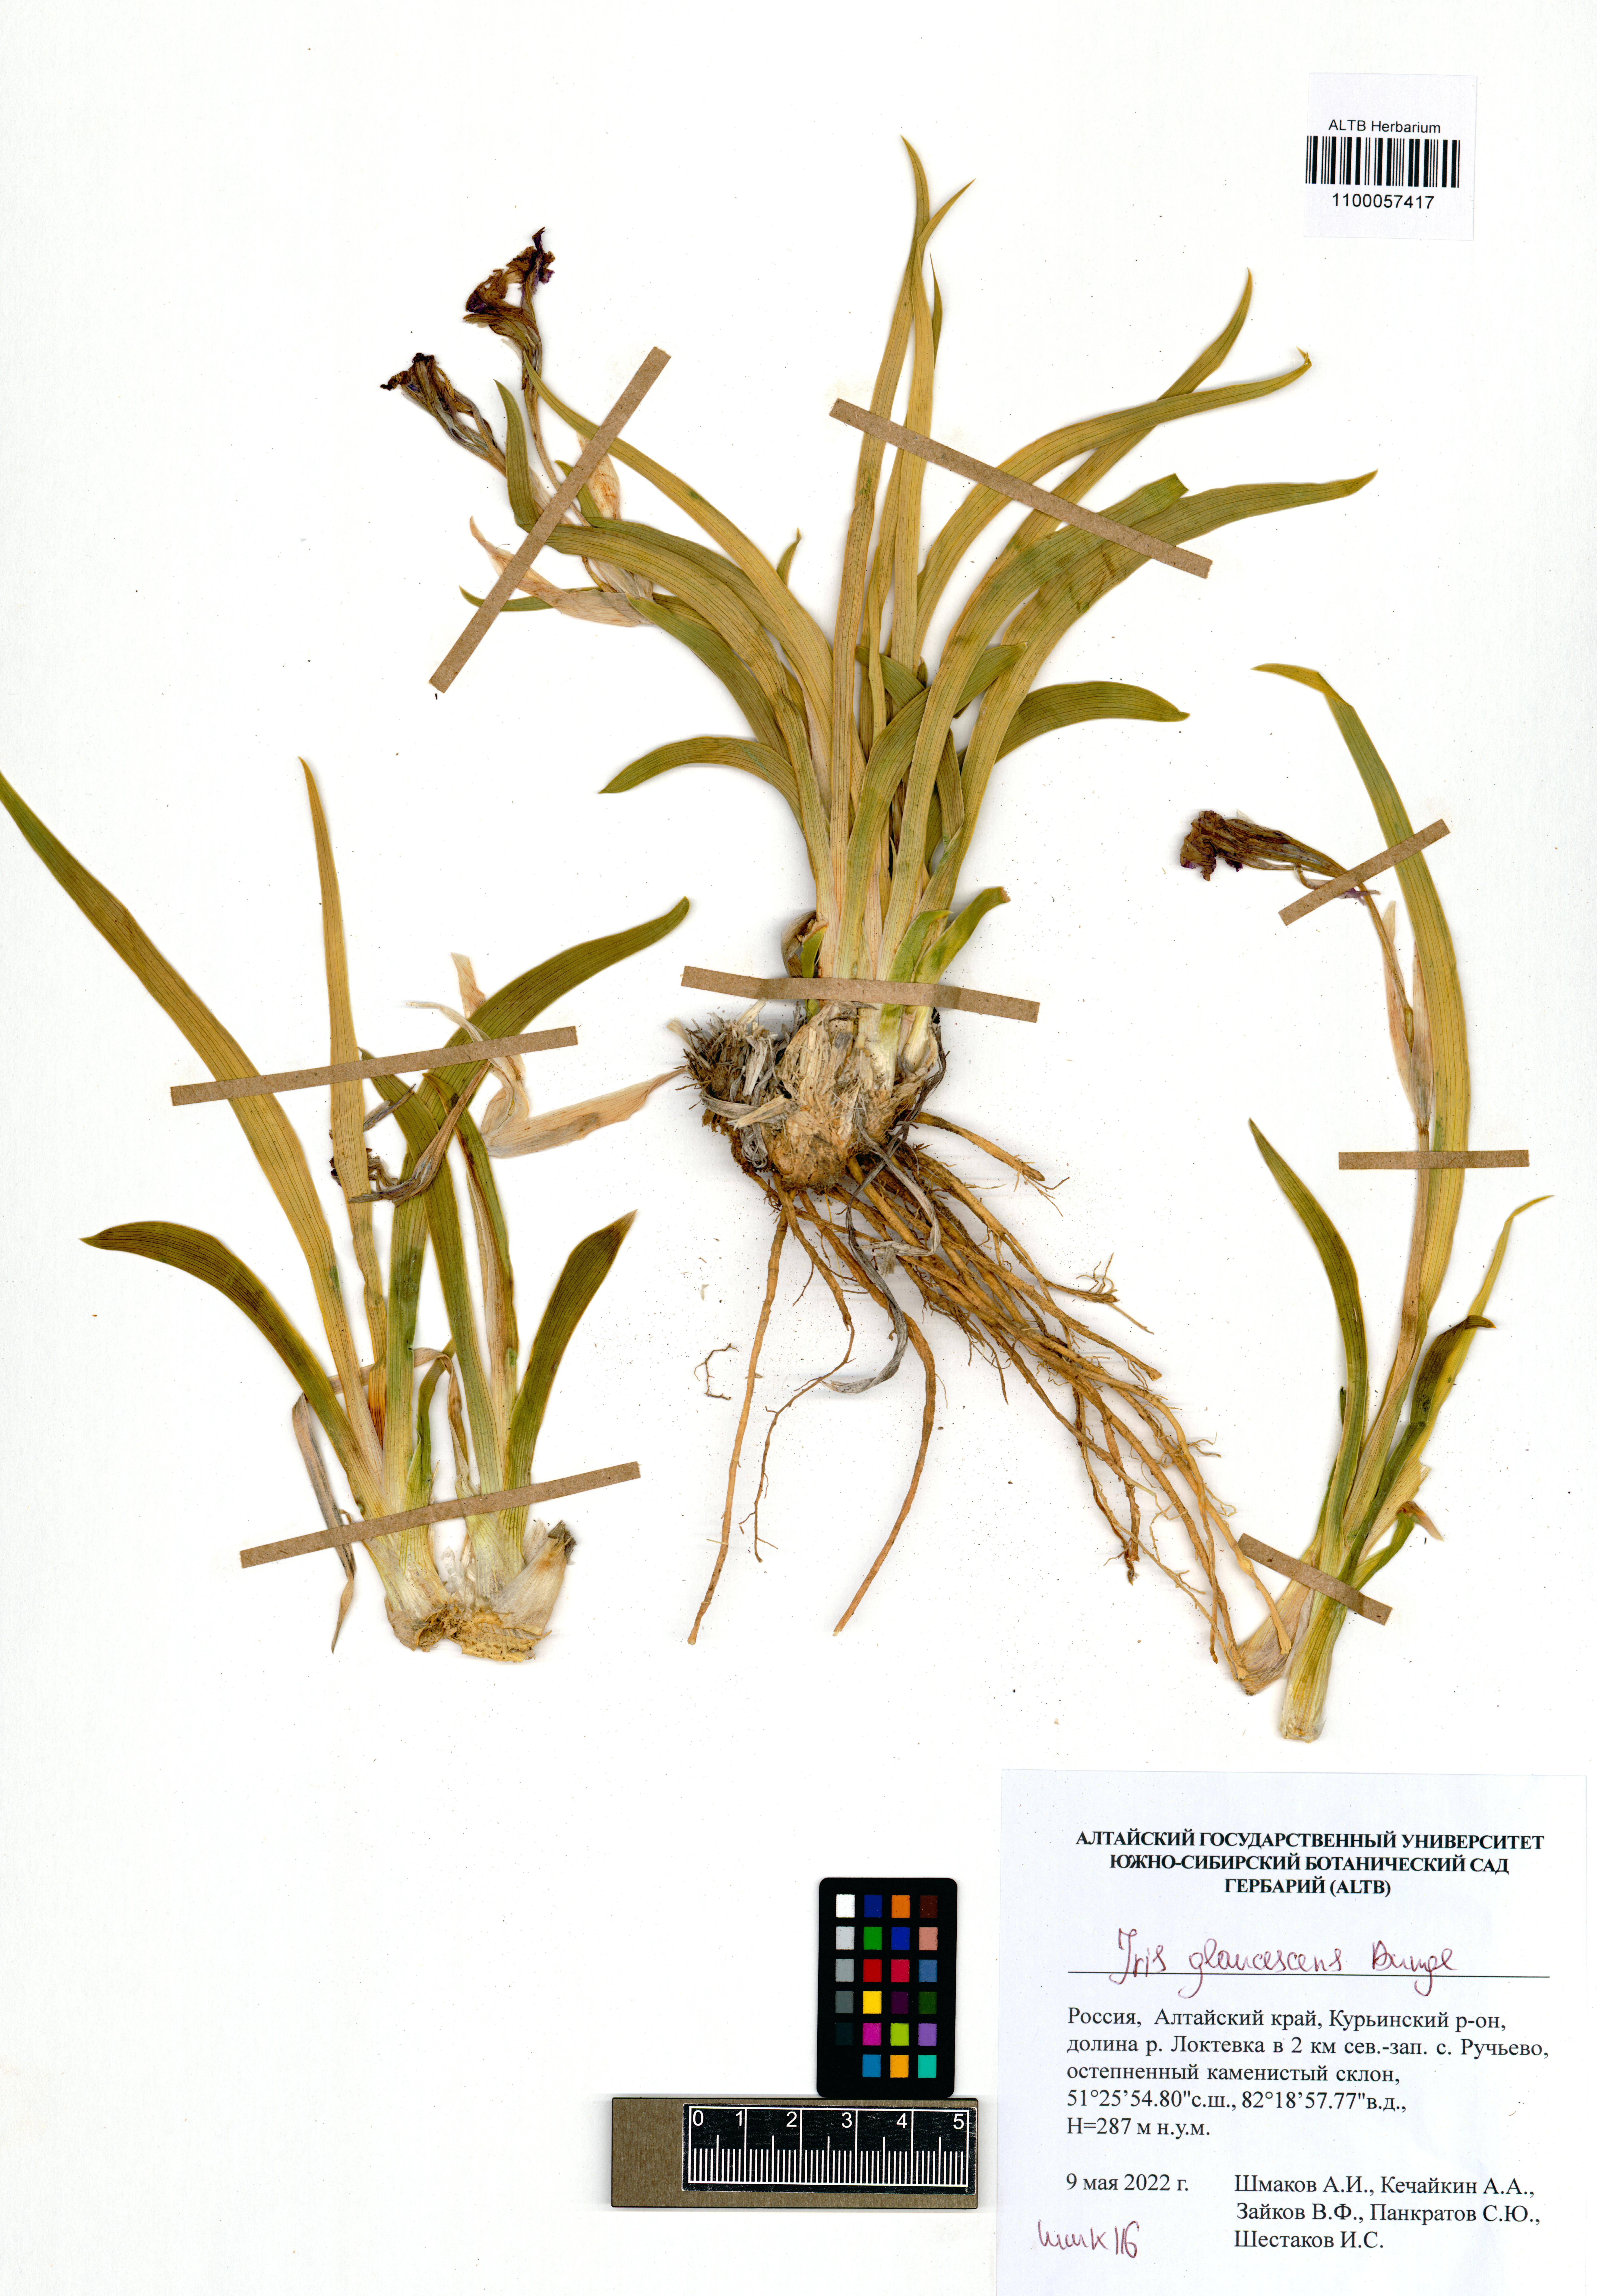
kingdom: Plantae
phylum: Tracheophyta
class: Liliopsida
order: Asparagales
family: Iridaceae
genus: Iris
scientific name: Iris glaucescens
